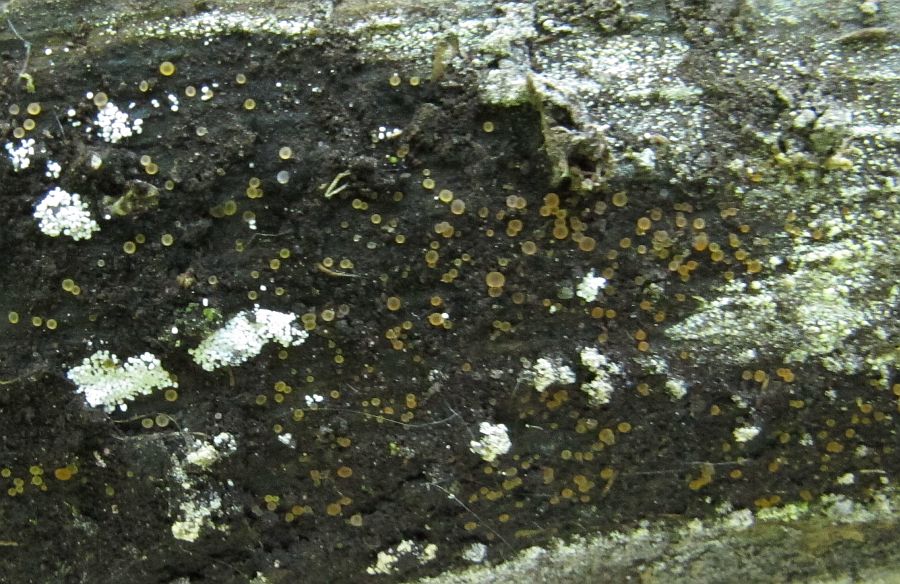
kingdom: Fungi
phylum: Ascomycota
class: Orbiliomycetes
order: Orbiliales
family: Orbiliaceae
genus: Orbilia
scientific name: Orbilia luteorubella
